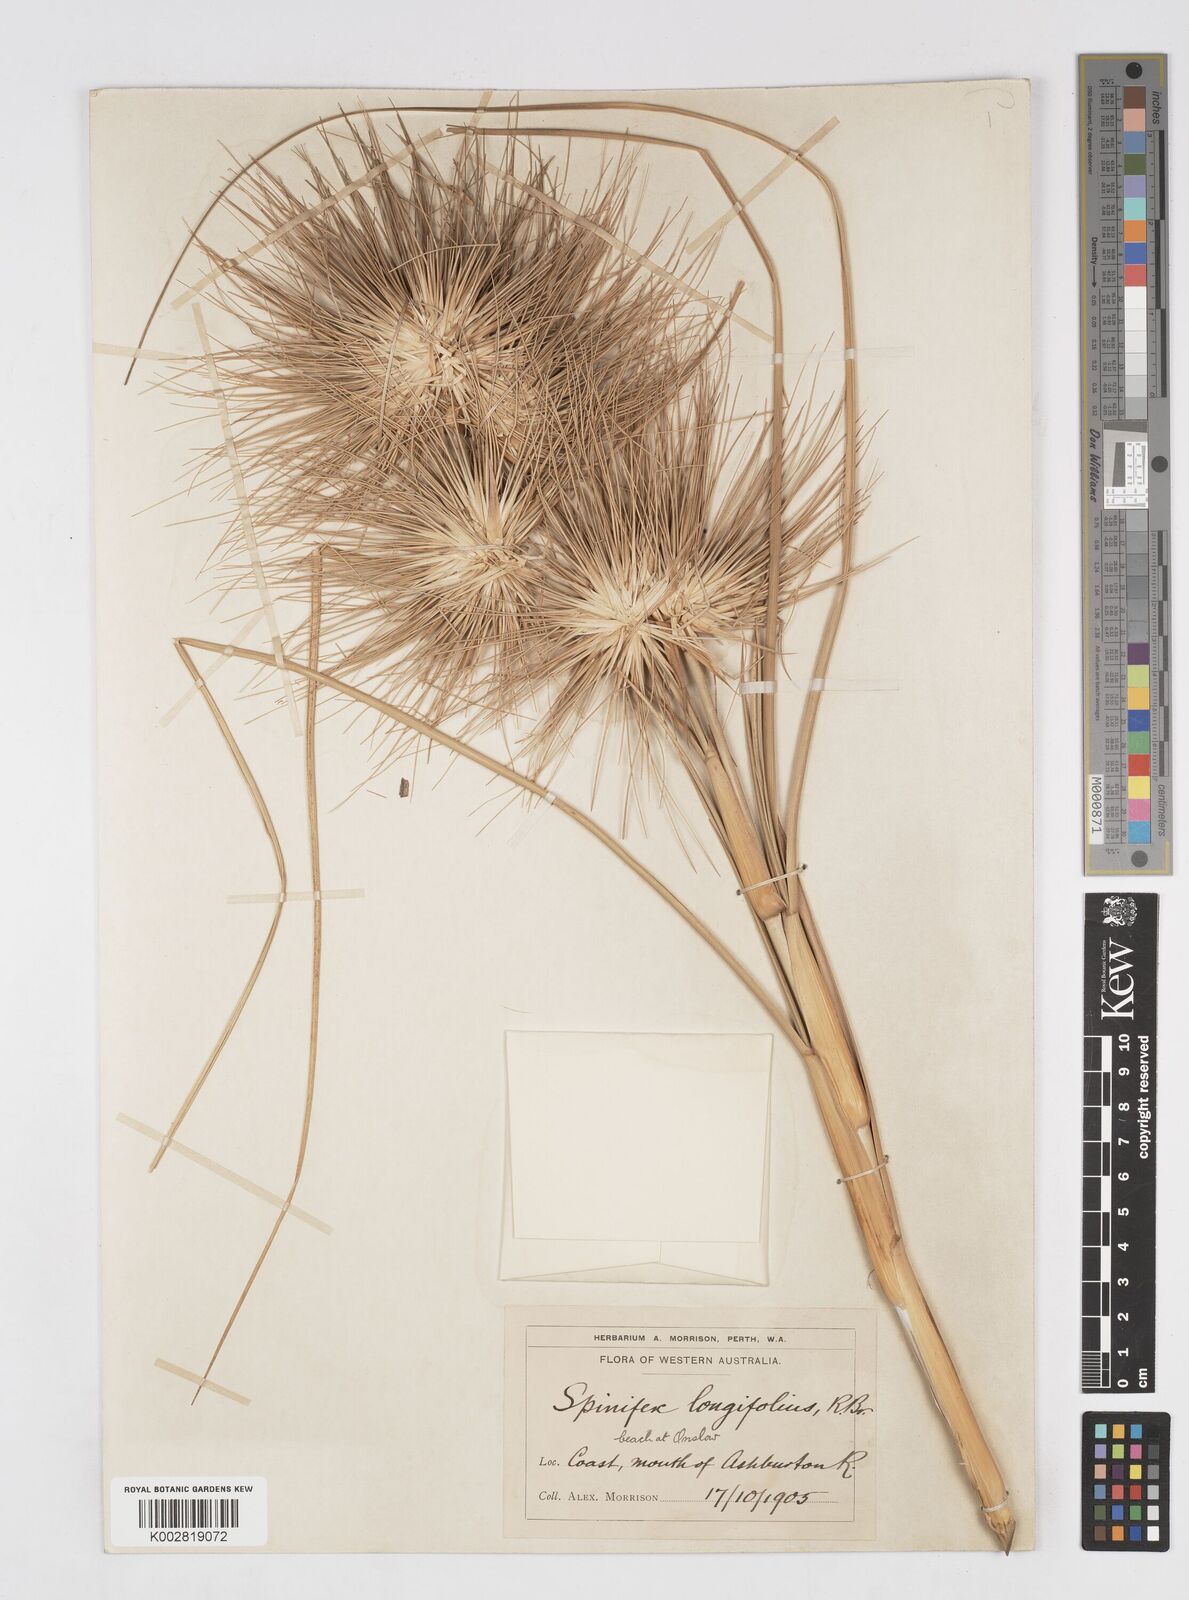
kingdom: Plantae
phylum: Tracheophyta
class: Liliopsida
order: Poales
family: Poaceae
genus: Spinifex
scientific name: Spinifex longifolius
